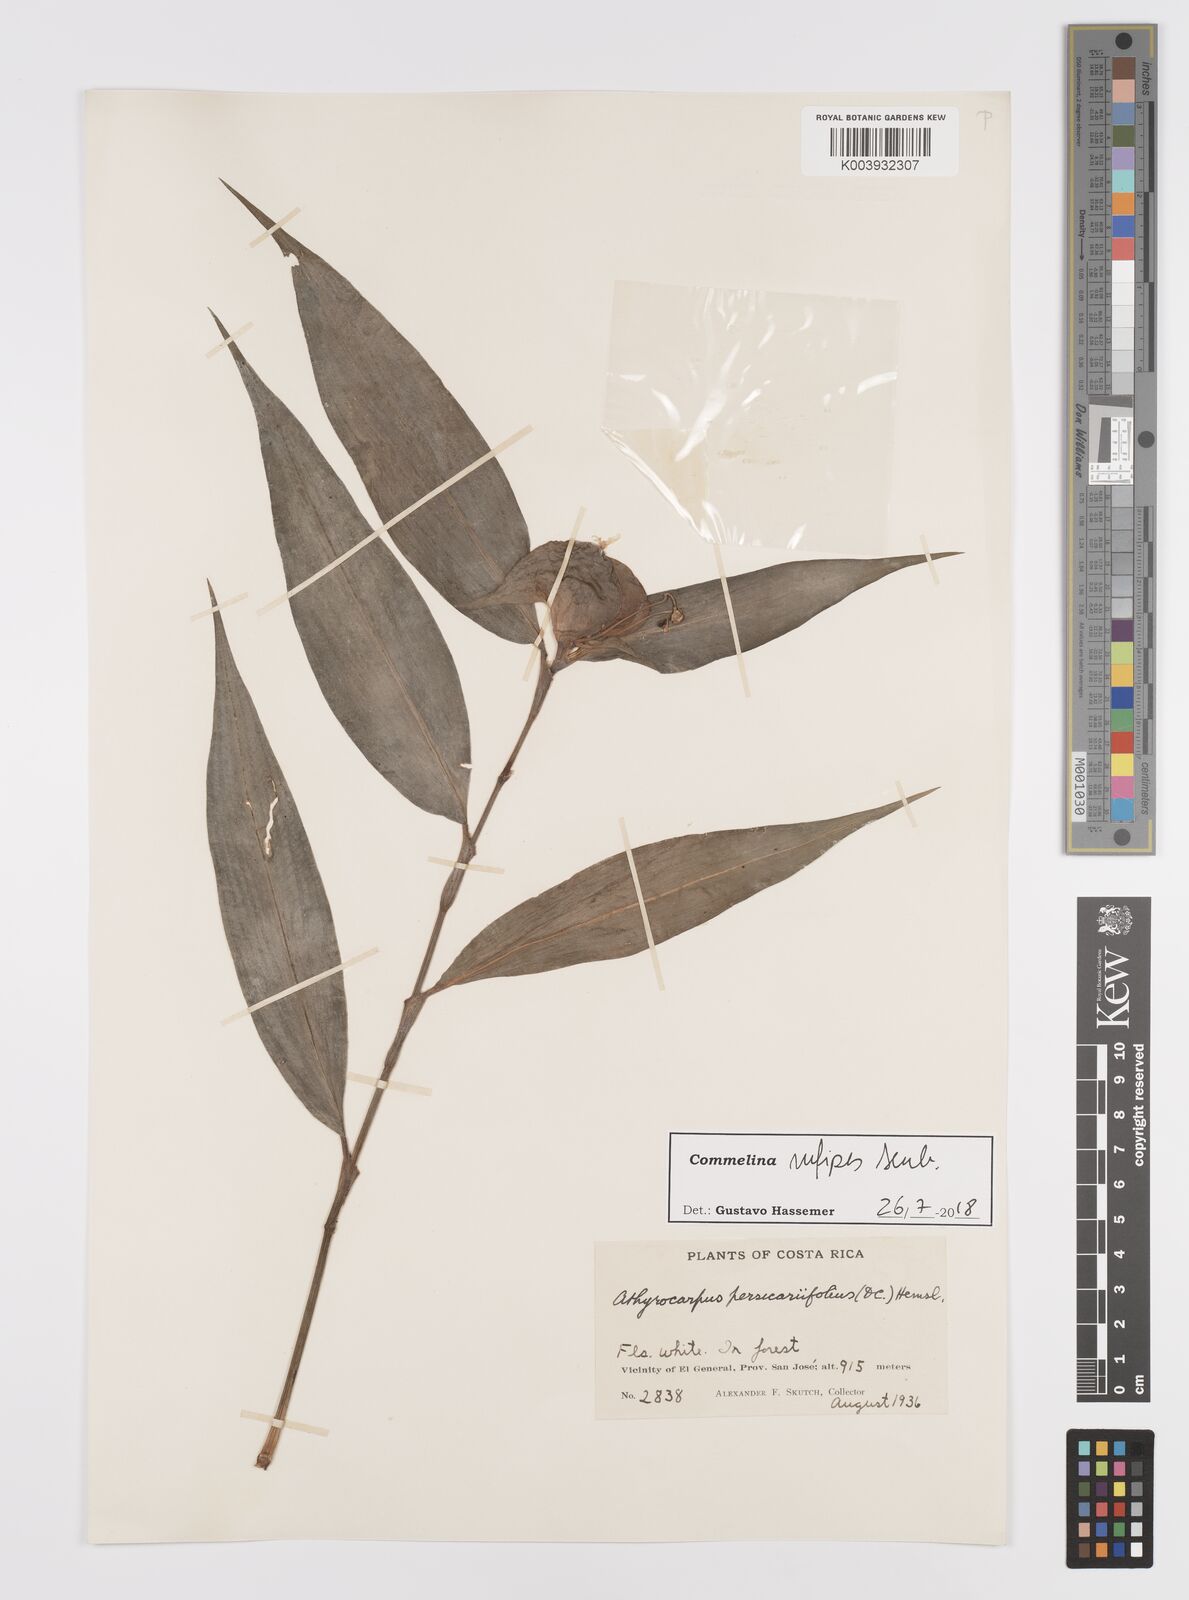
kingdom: Plantae
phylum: Tracheophyta
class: Liliopsida
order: Commelinales
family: Commelinaceae
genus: Commelina
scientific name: Commelina rufipes
